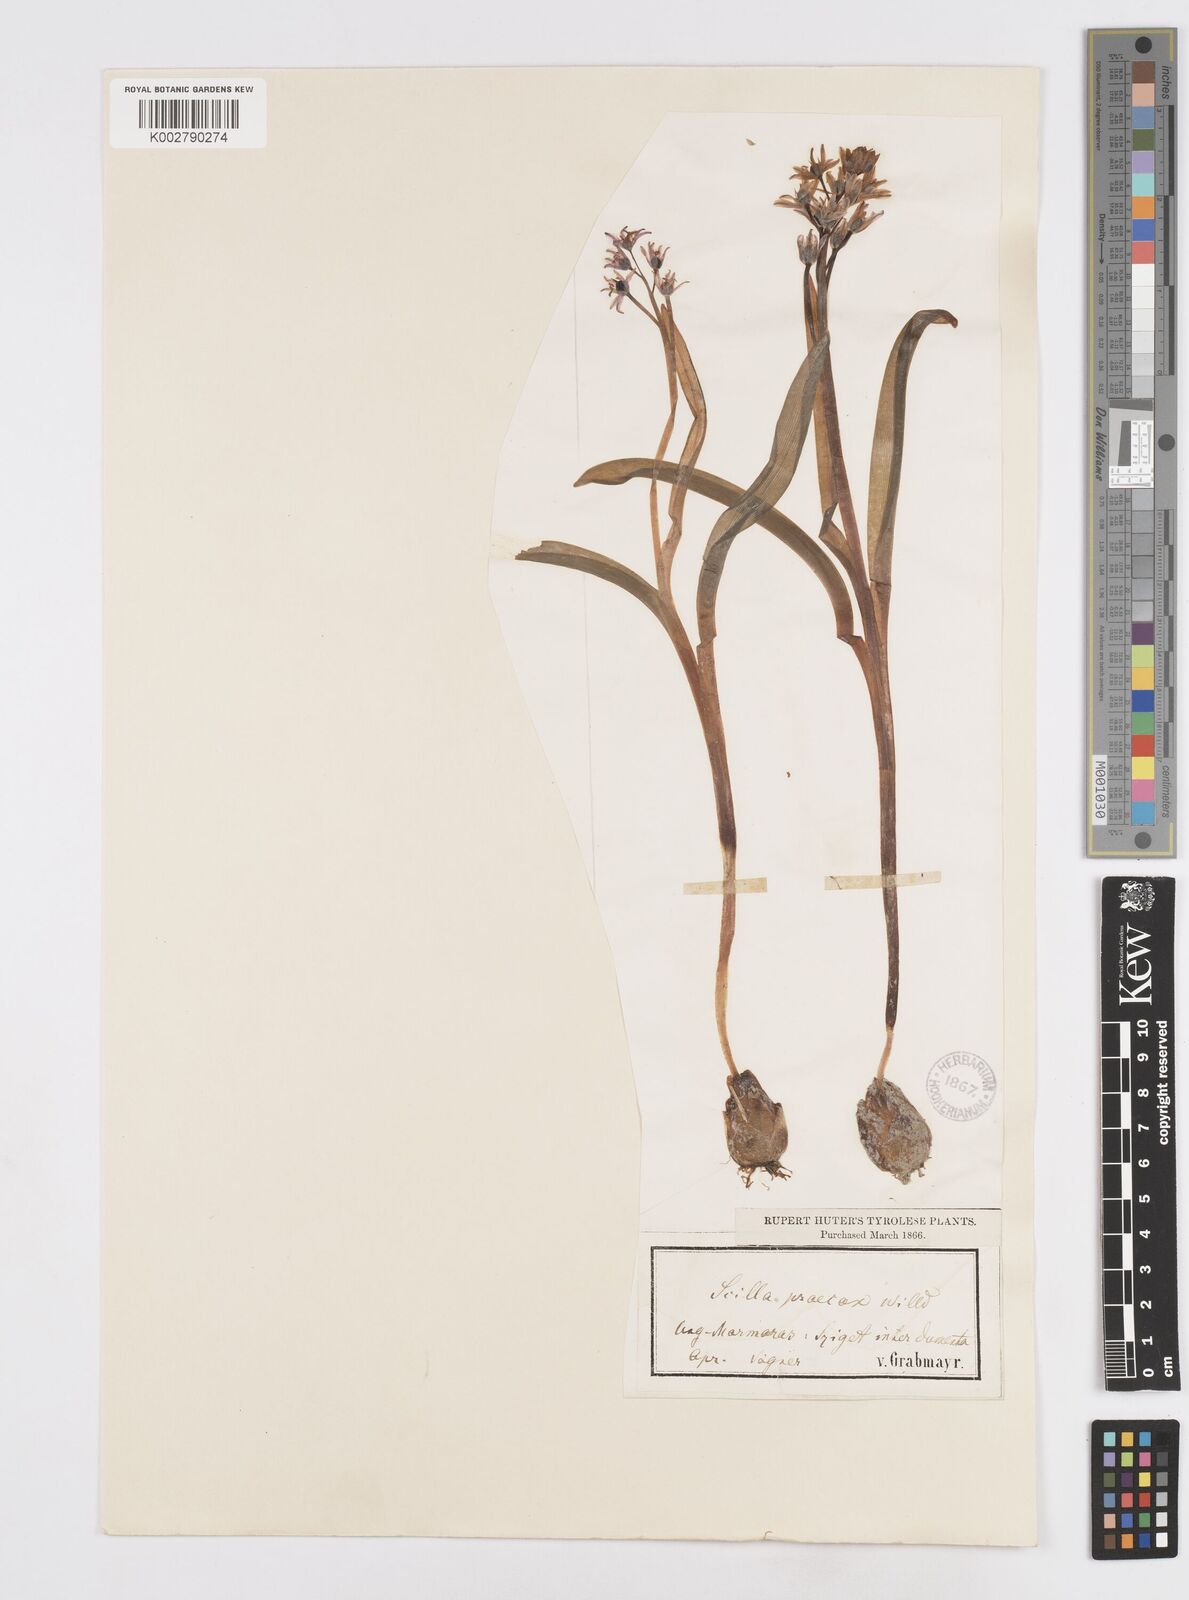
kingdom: Plantae
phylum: Tracheophyta
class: Liliopsida
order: Asparagales
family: Asparagaceae
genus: Scilla
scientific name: Scilla bifolia
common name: Alpine squill
